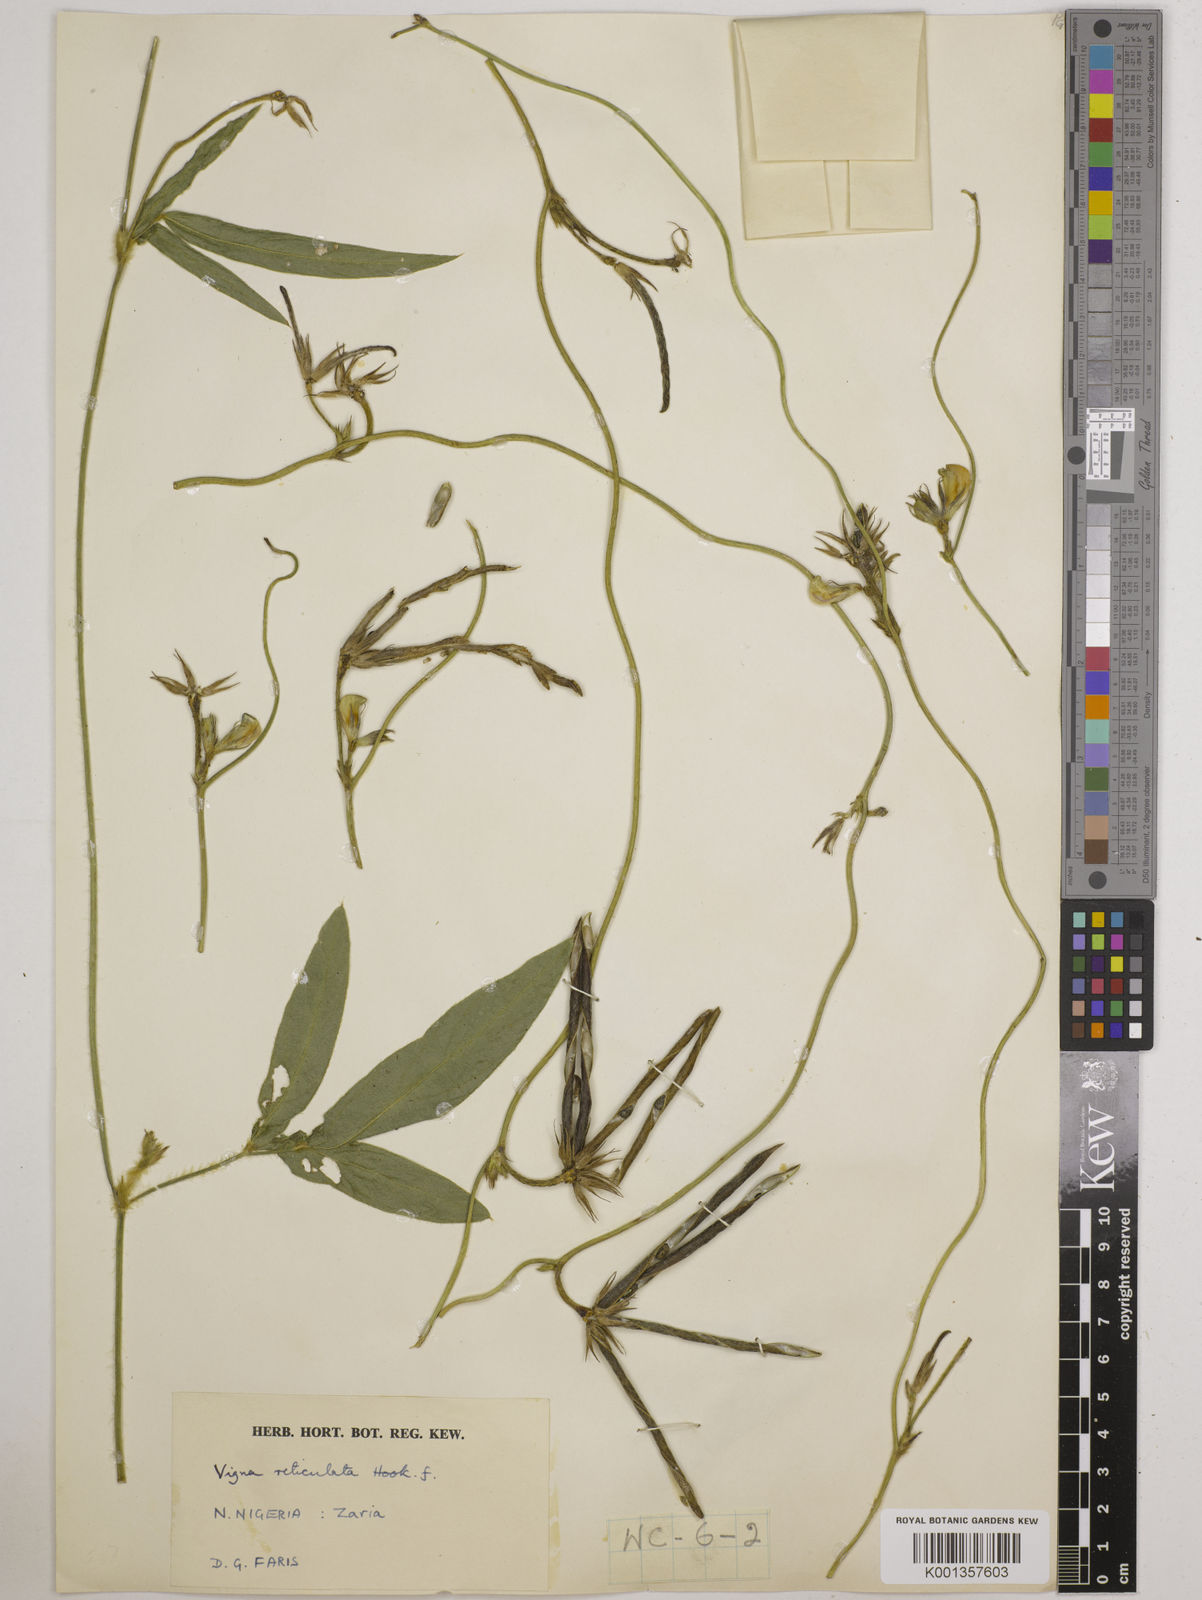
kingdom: Plantae
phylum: Tracheophyta
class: Magnoliopsida
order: Fabales
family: Fabaceae
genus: Vigna
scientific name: Vigna reticulata
